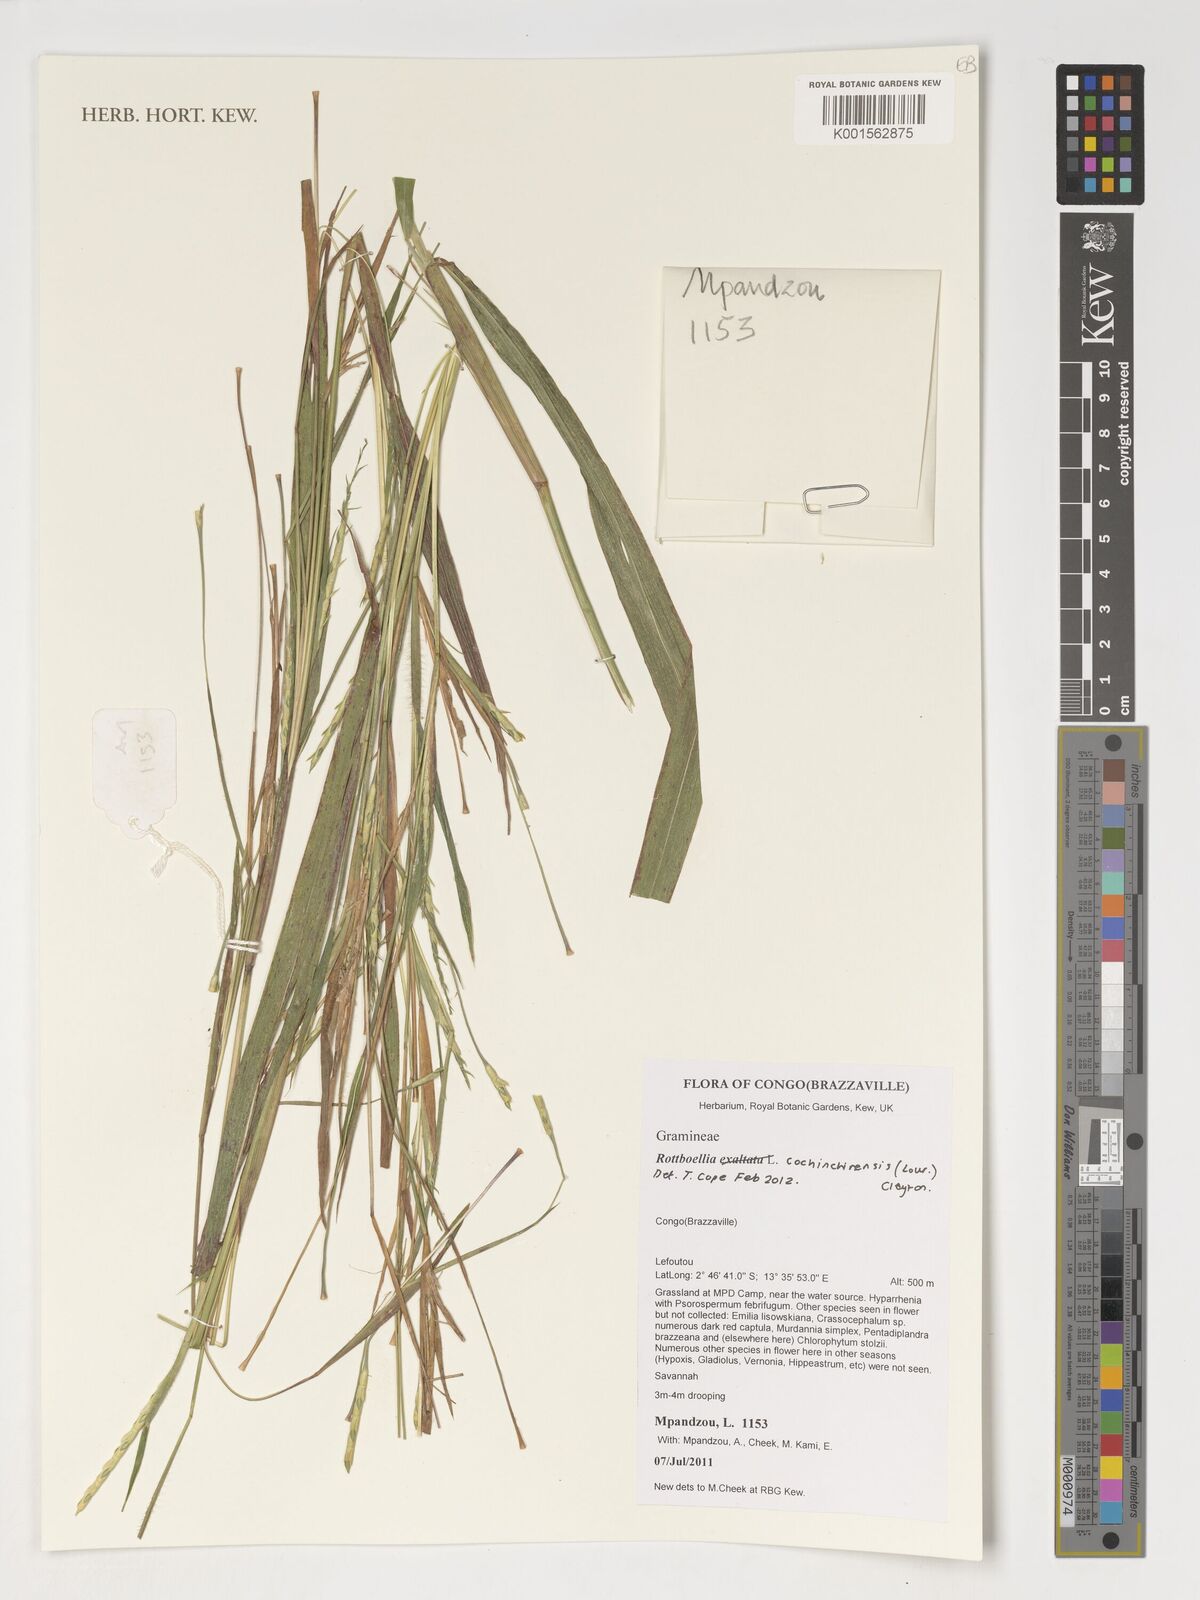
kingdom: Plantae
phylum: Tracheophyta
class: Liliopsida
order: Poales
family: Poaceae
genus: Rottboellia
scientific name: Rottboellia cochinchinensis
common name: Itchgrass
